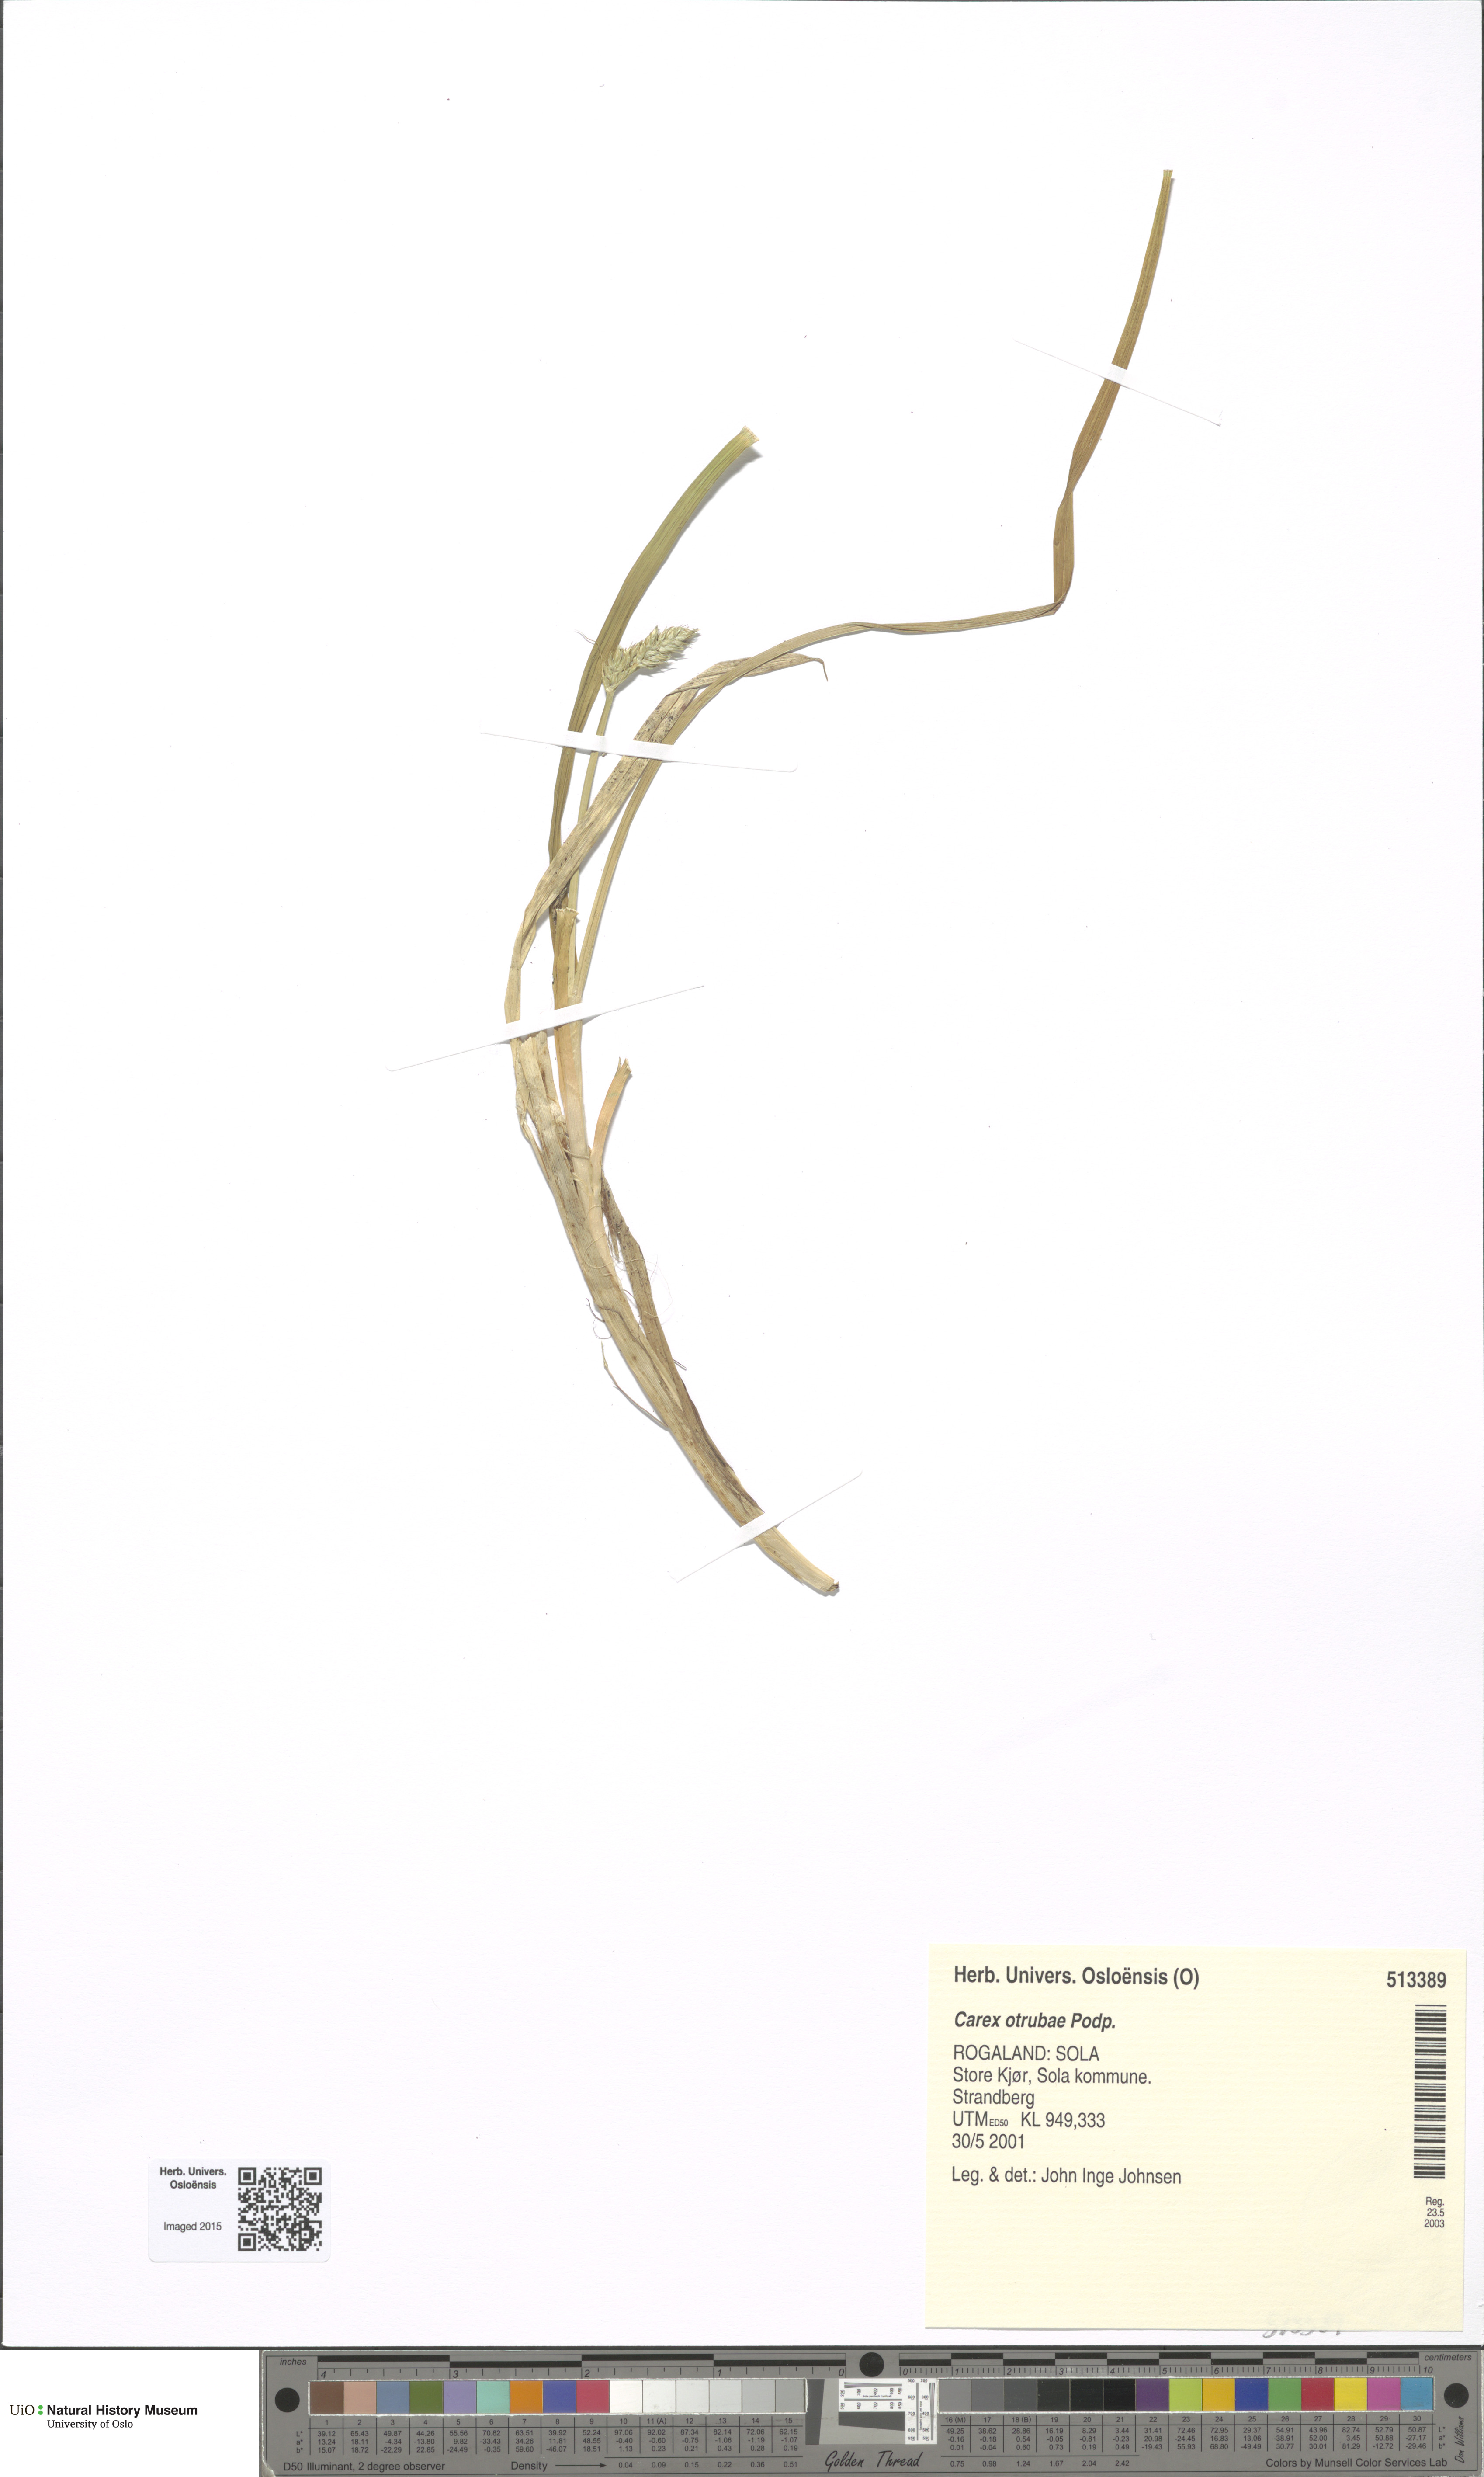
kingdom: Plantae
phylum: Tracheophyta
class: Liliopsida
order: Poales
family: Cyperaceae
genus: Carex
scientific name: Carex otrubae
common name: False fox-sedge
